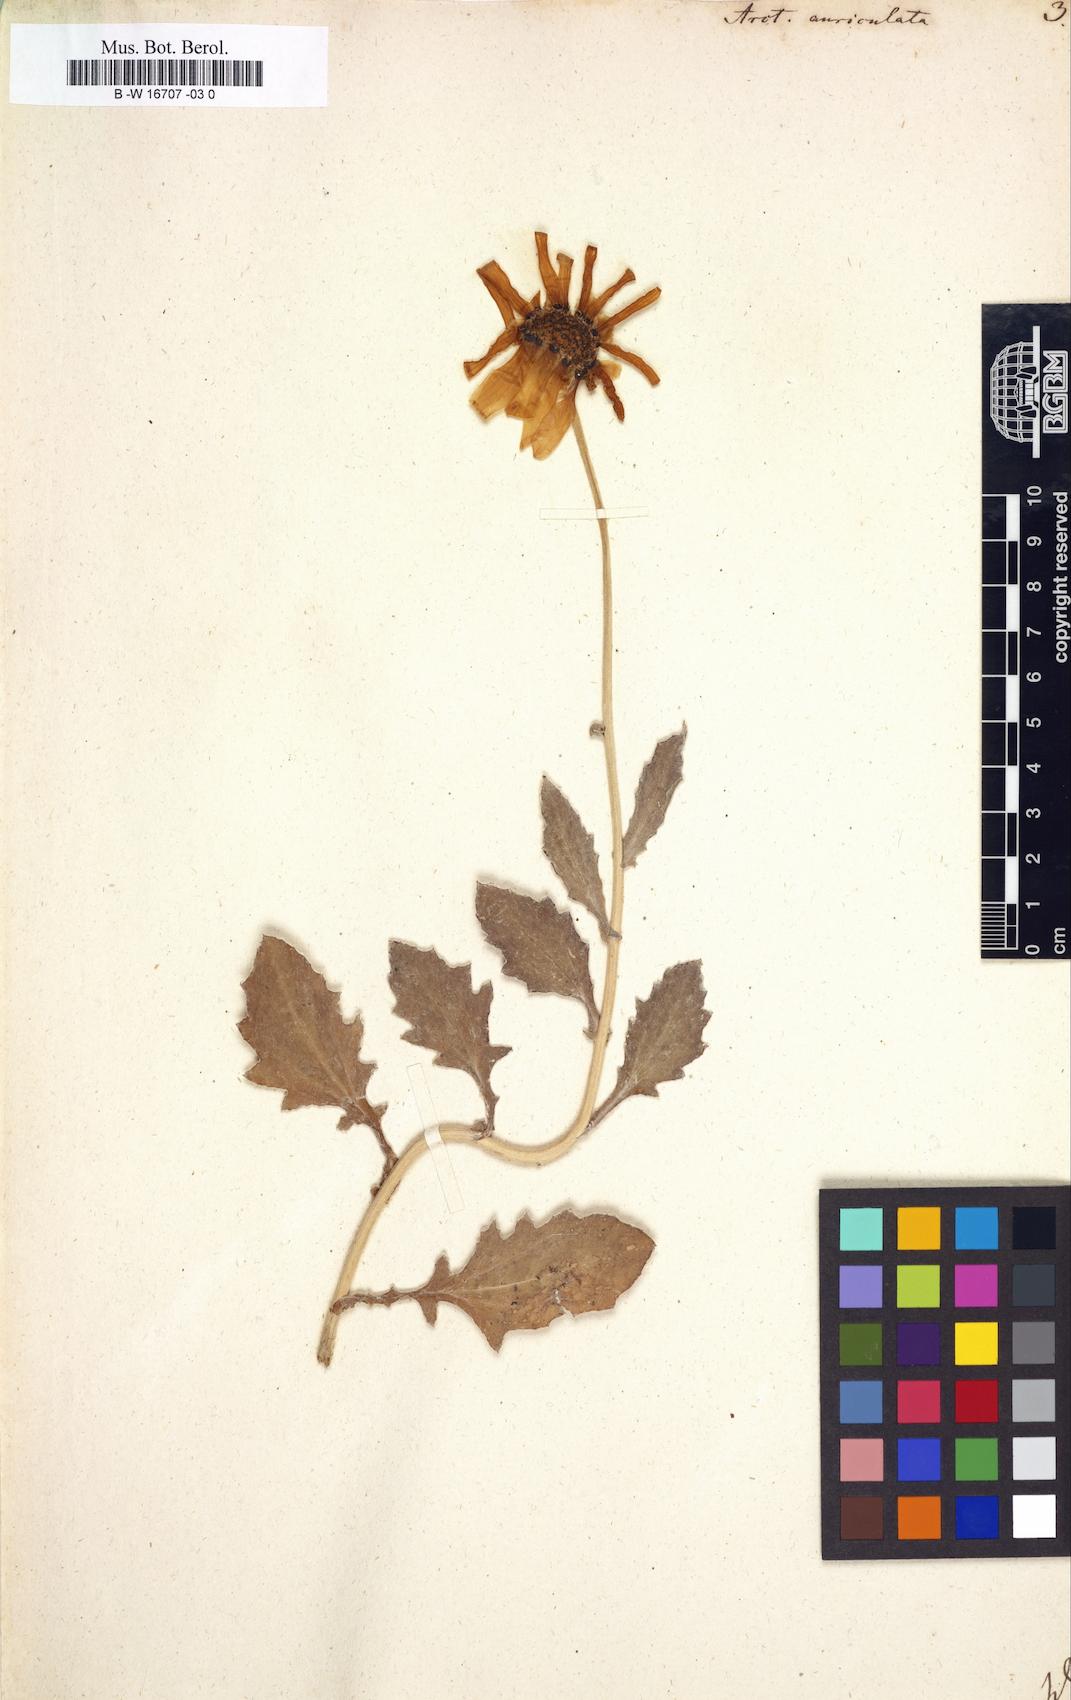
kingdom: Plantae
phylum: Tracheophyta
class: Magnoliopsida
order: Asterales
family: Asteraceae
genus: Arctotis
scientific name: Arctotis auriculata
